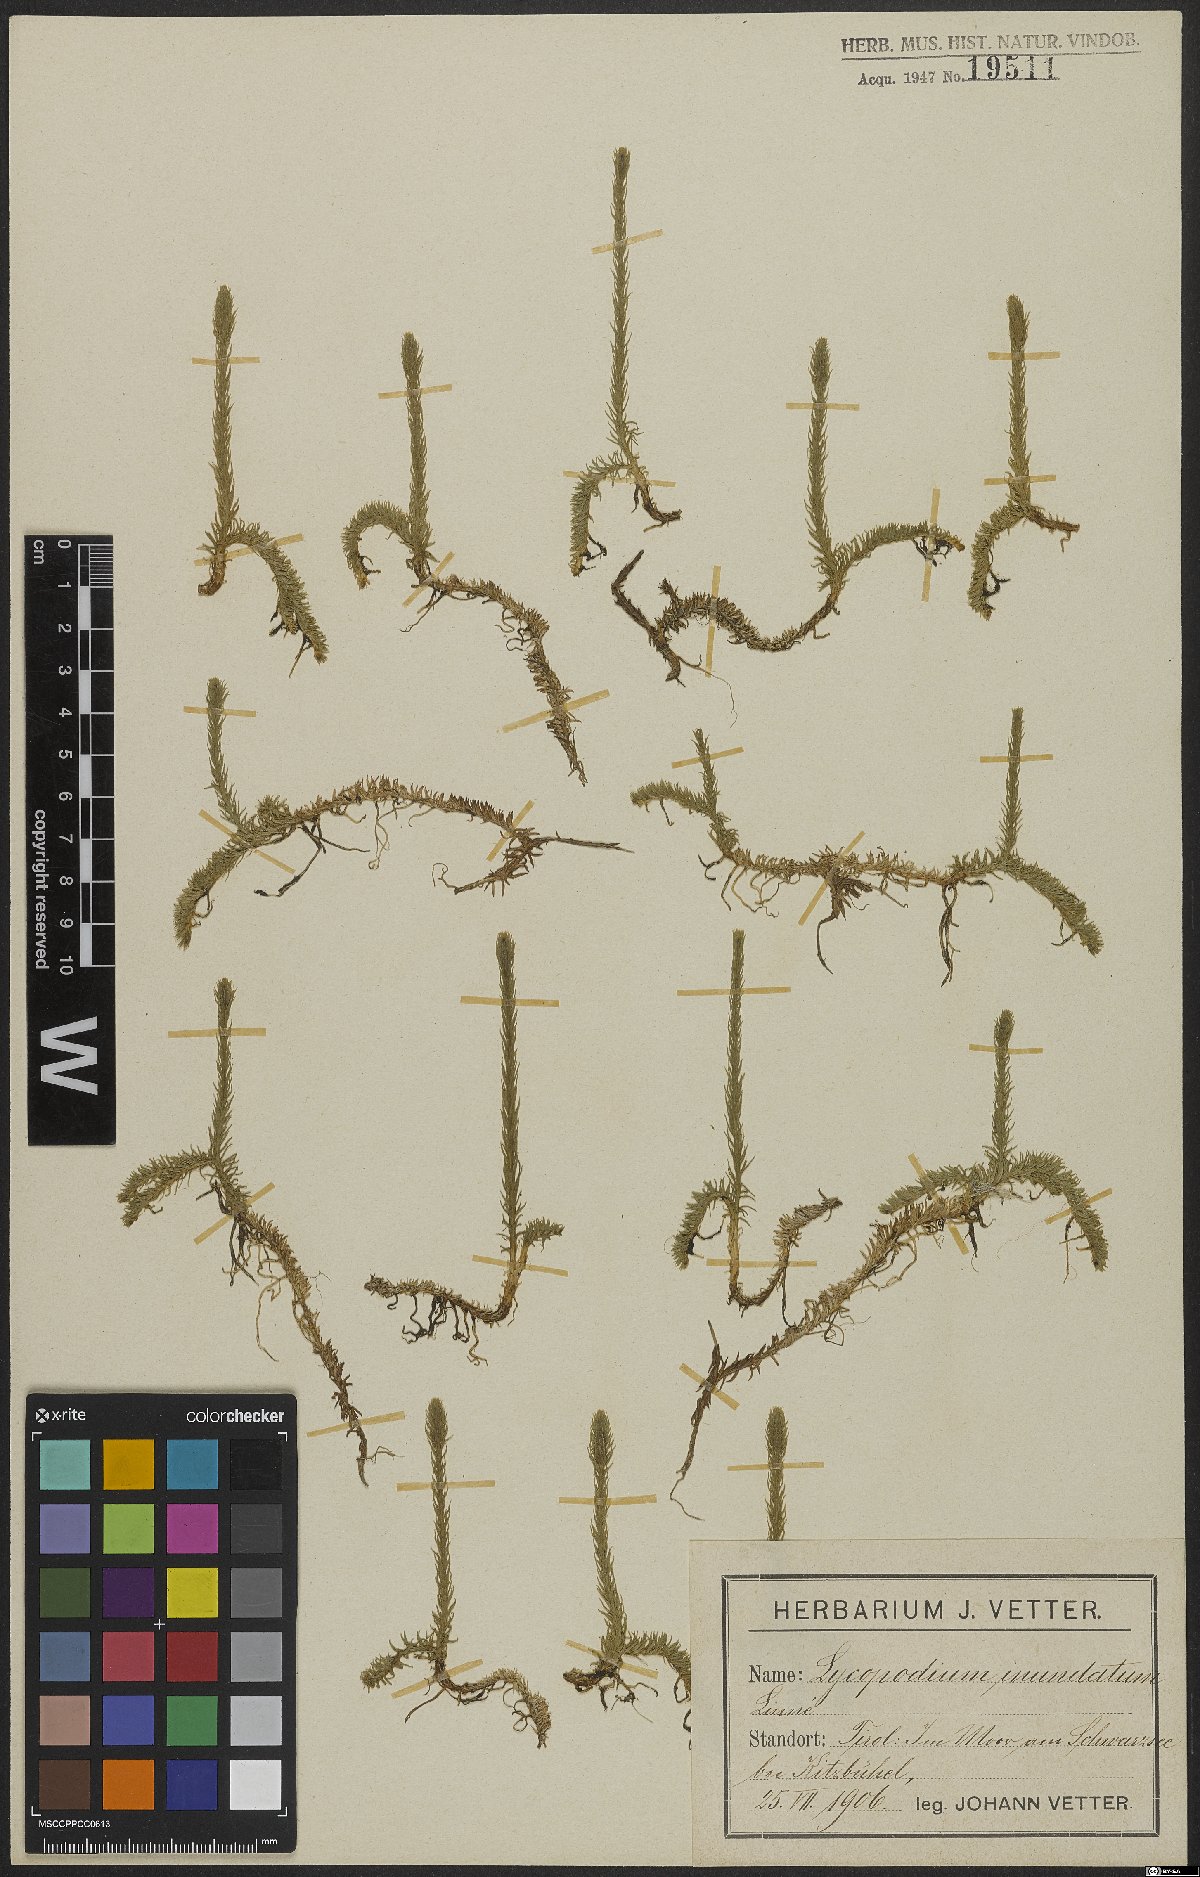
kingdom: Plantae
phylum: Tracheophyta
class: Lycopodiopsida
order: Lycopodiales
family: Lycopodiaceae
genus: Lycopodiella
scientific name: Lycopodiella inundata
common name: Marsh clubmoss
